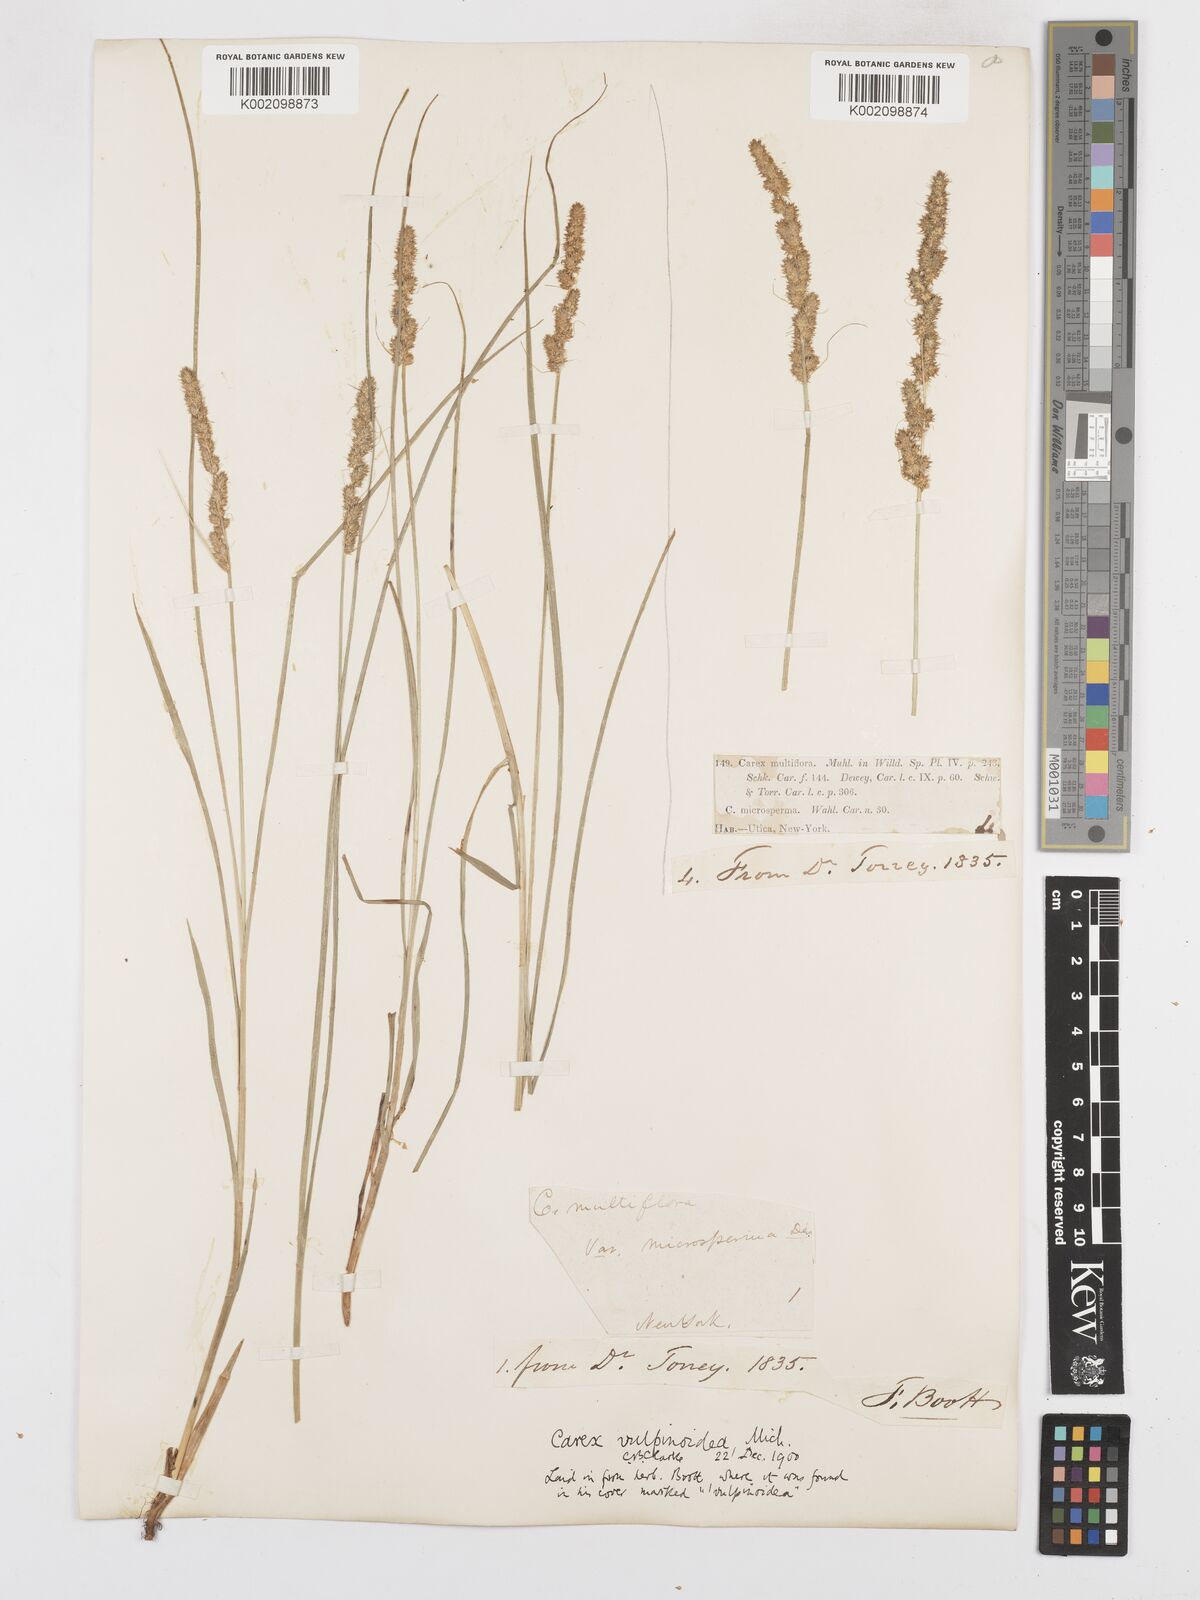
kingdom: Plantae
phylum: Tracheophyta
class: Liliopsida
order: Poales
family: Cyperaceae
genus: Carex
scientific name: Carex vulpinoidea
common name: American fox-sedge
